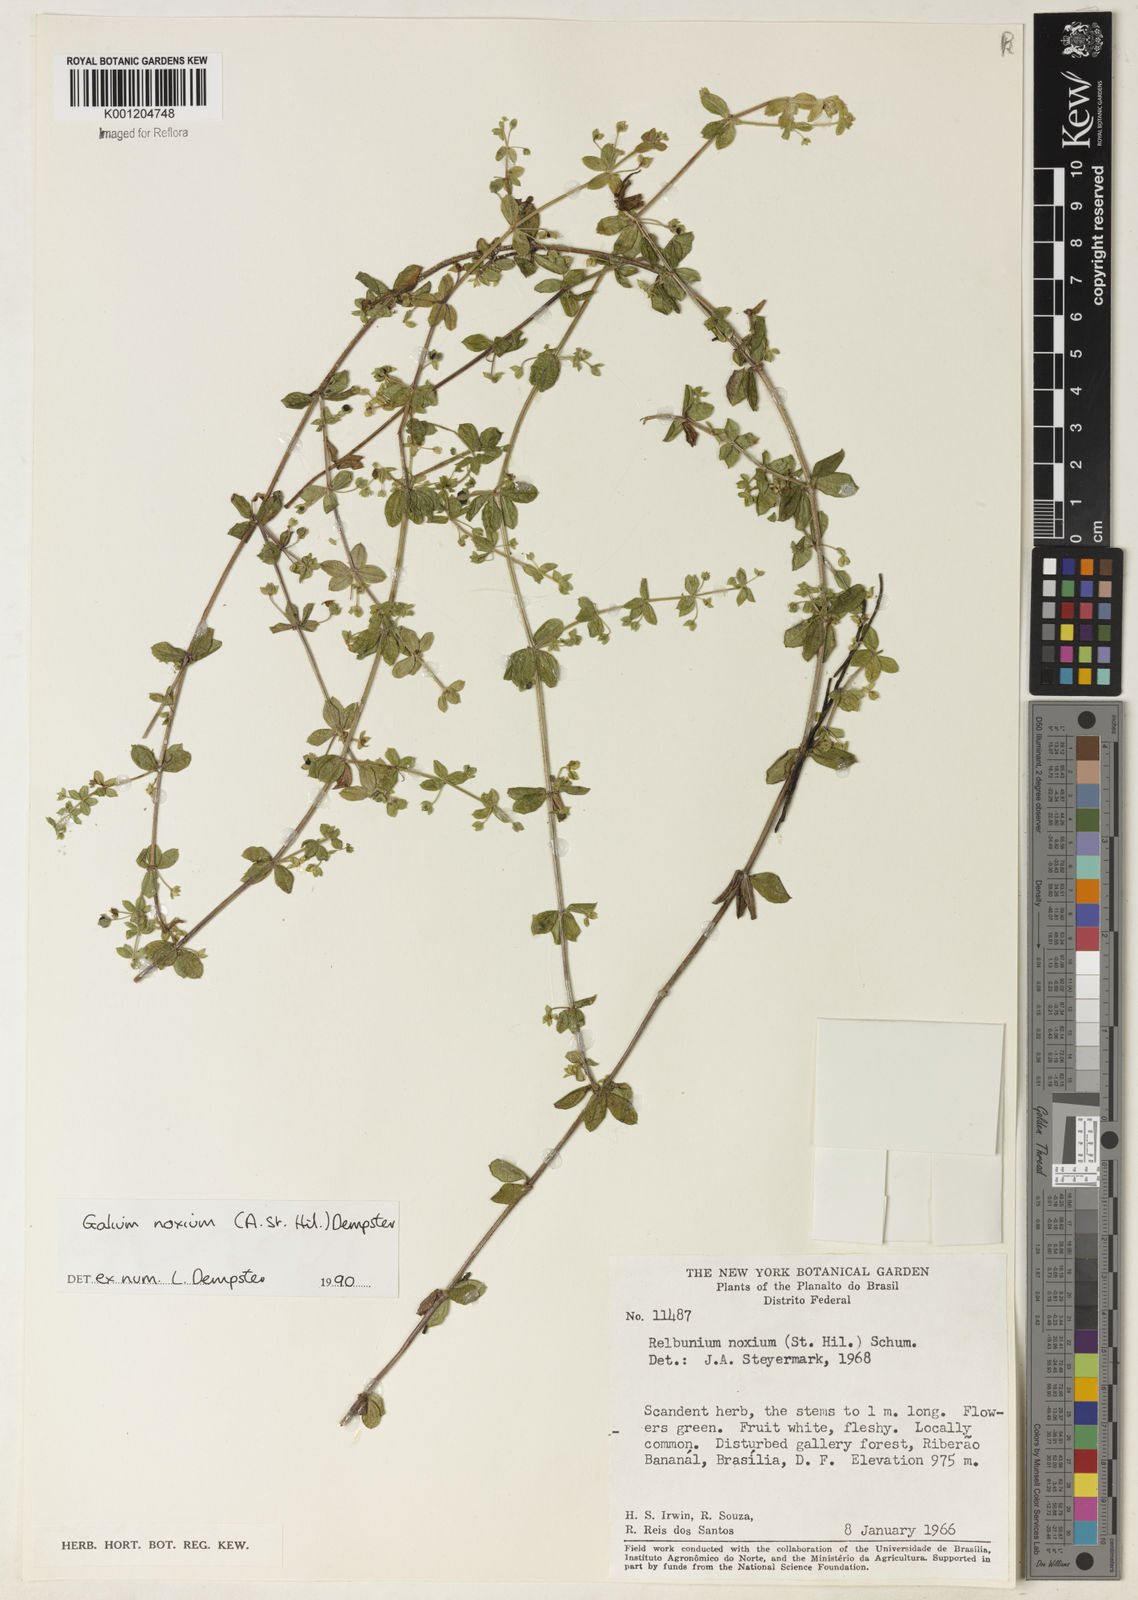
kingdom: Plantae
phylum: Tracheophyta
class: Magnoliopsida
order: Gentianales
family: Rubiaceae
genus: Galium
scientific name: Galium noxium
